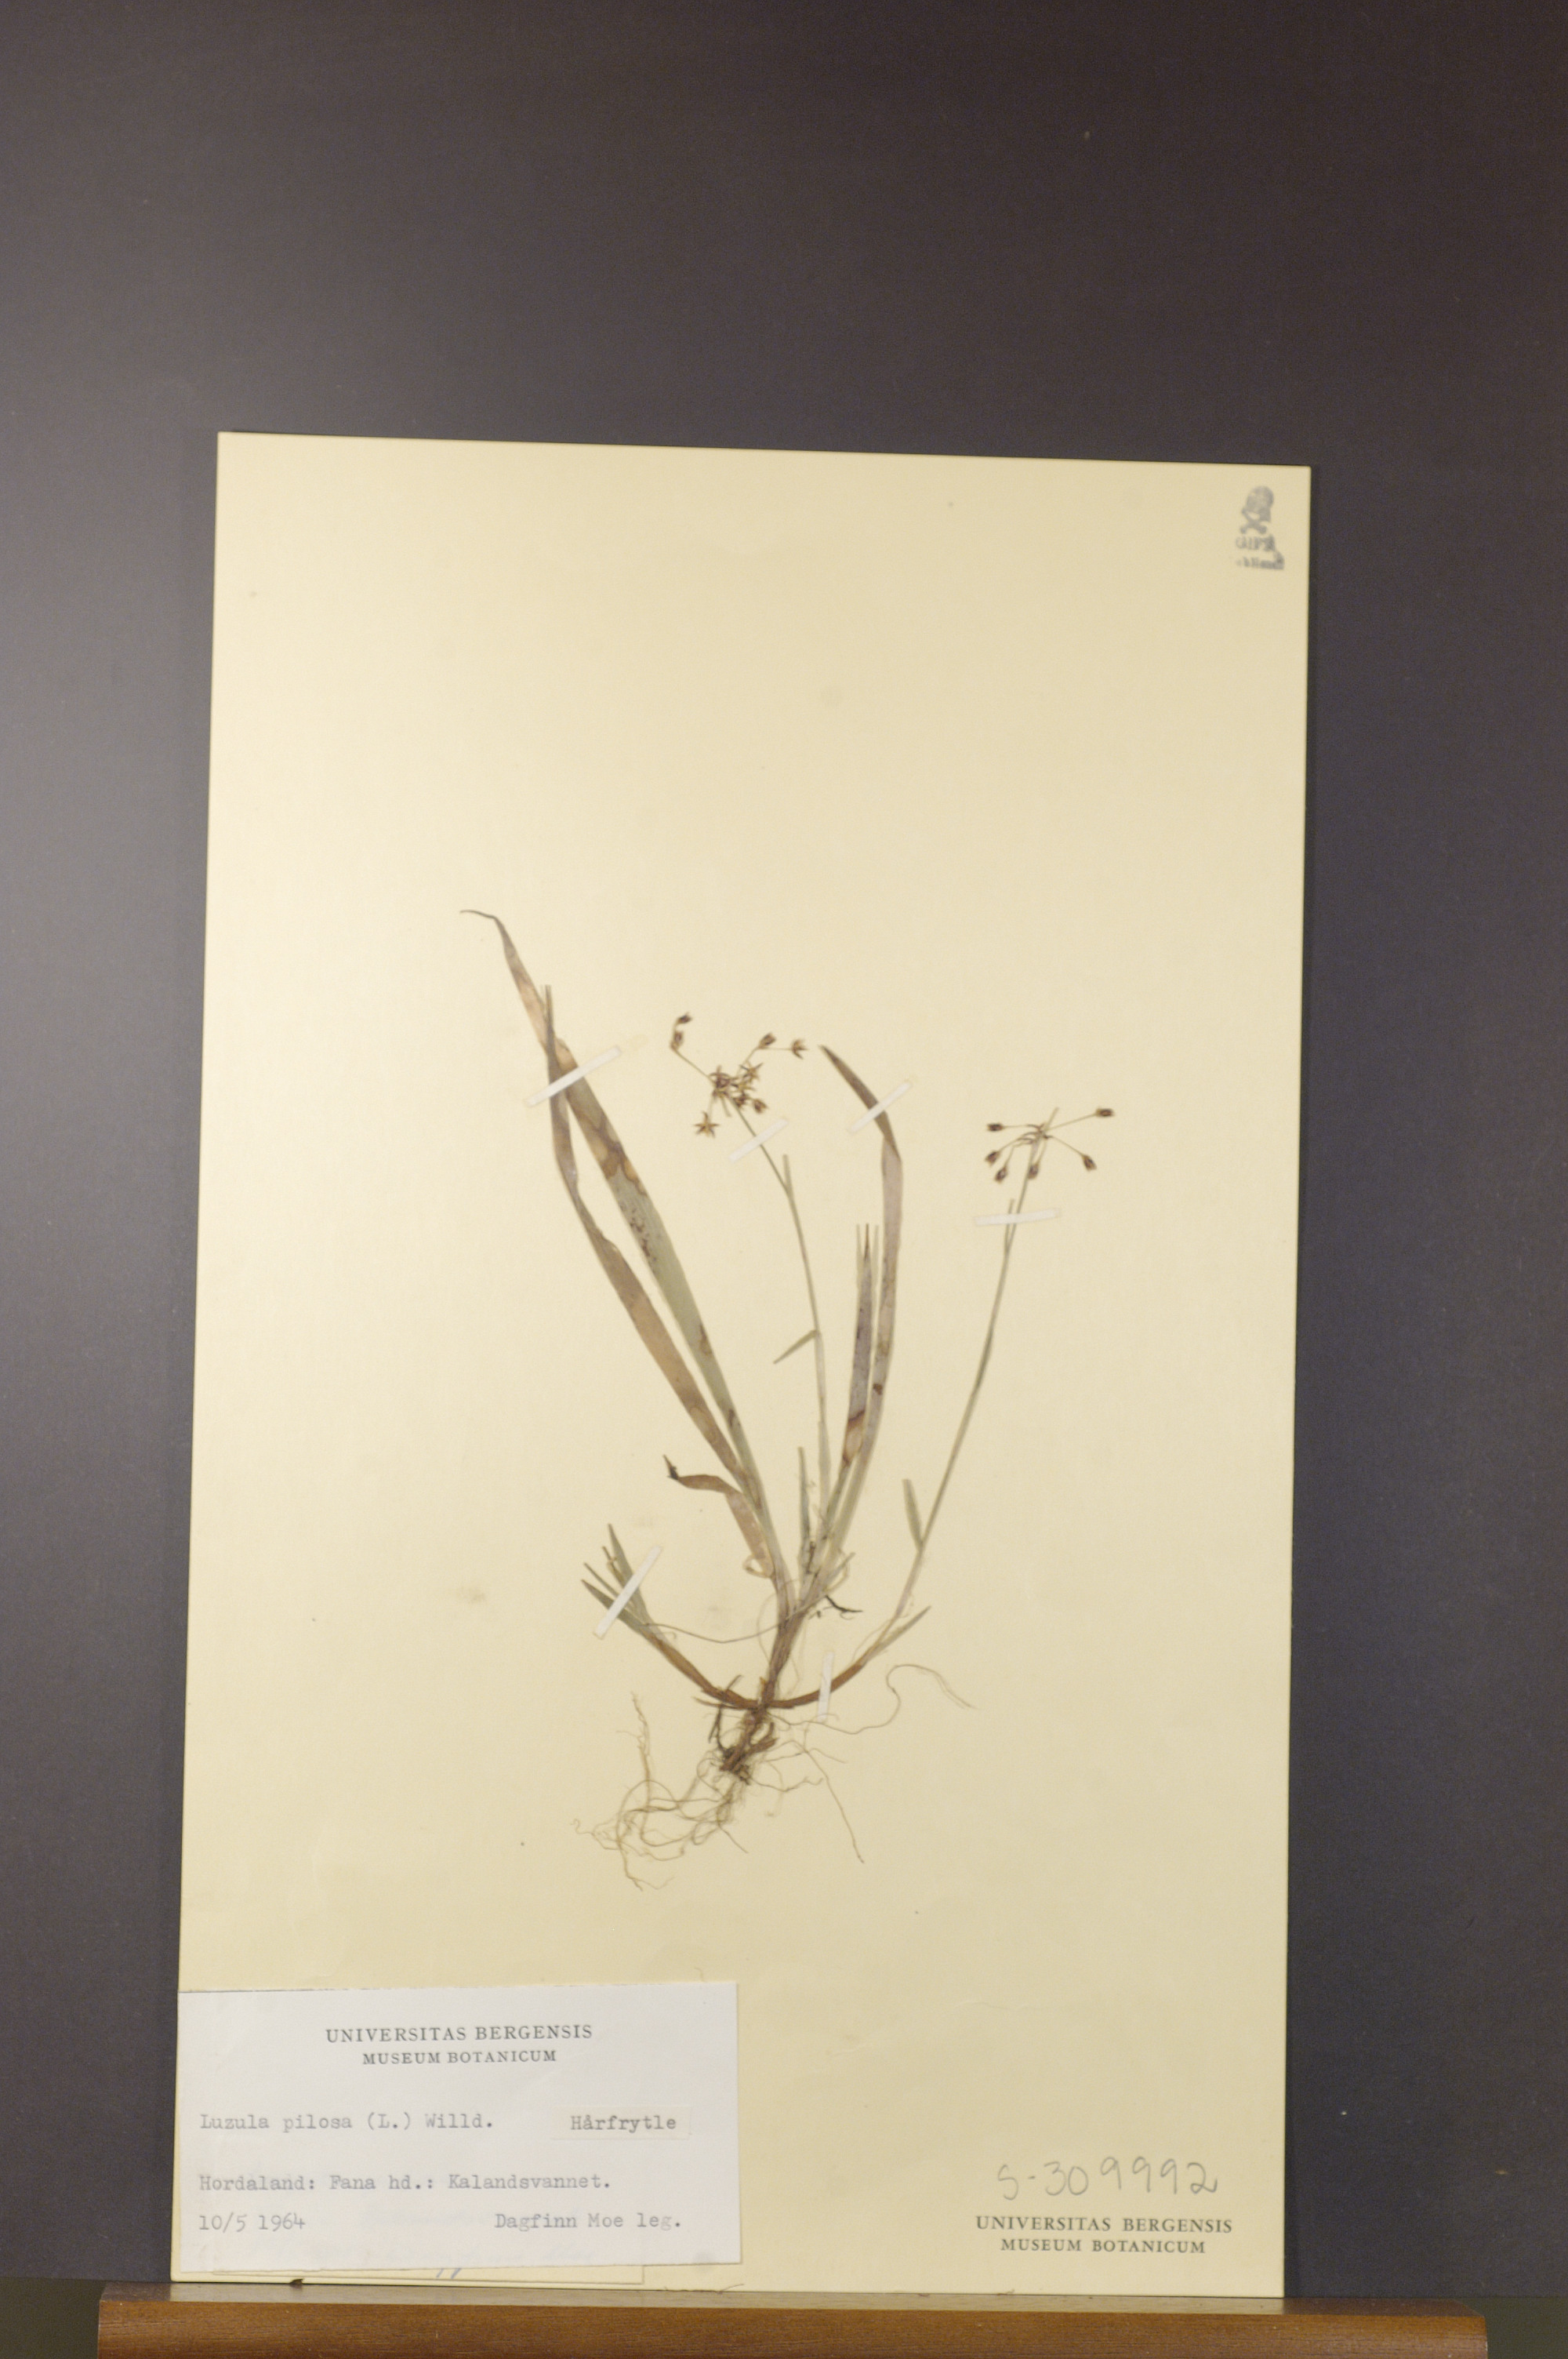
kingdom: Plantae
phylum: Tracheophyta
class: Liliopsida
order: Poales
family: Juncaceae
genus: Luzula
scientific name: Luzula pilosa
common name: Hairy wood-rush
